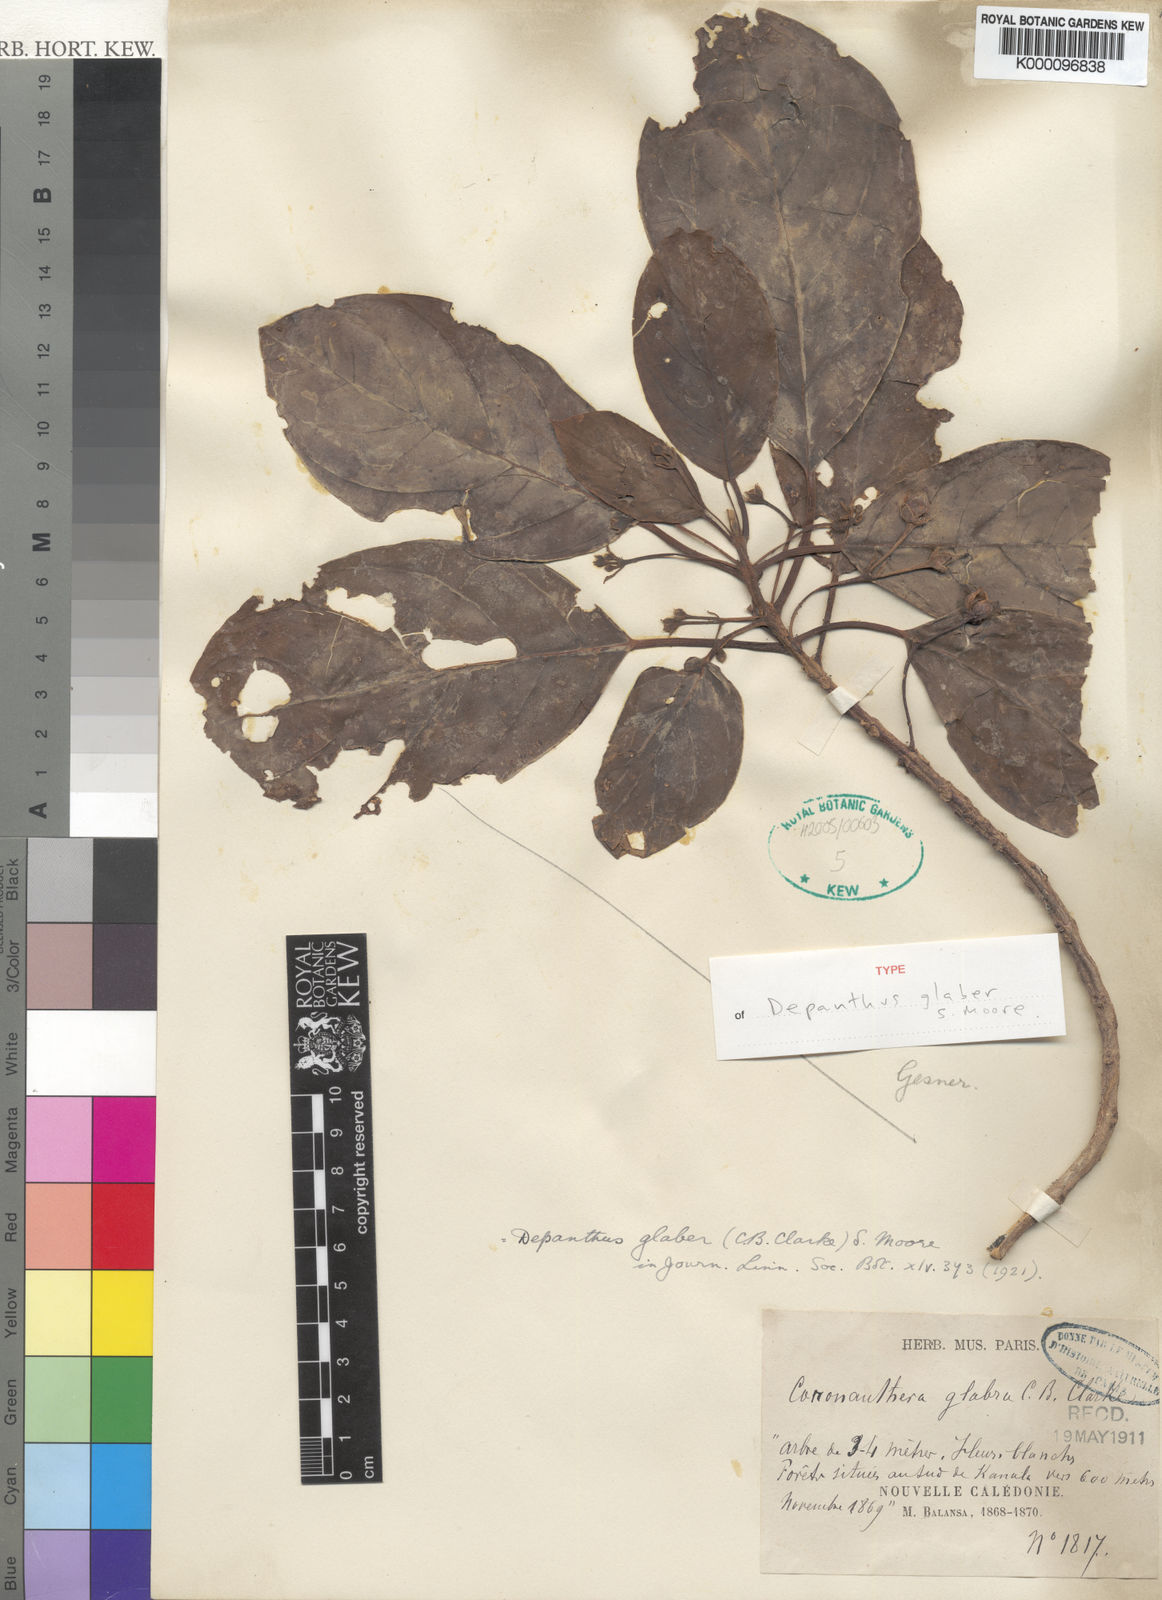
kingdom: Plantae
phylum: Tracheophyta
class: Magnoliopsida
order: Lamiales
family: Gesneriaceae
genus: Depanthus
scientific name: Depanthus glaber
